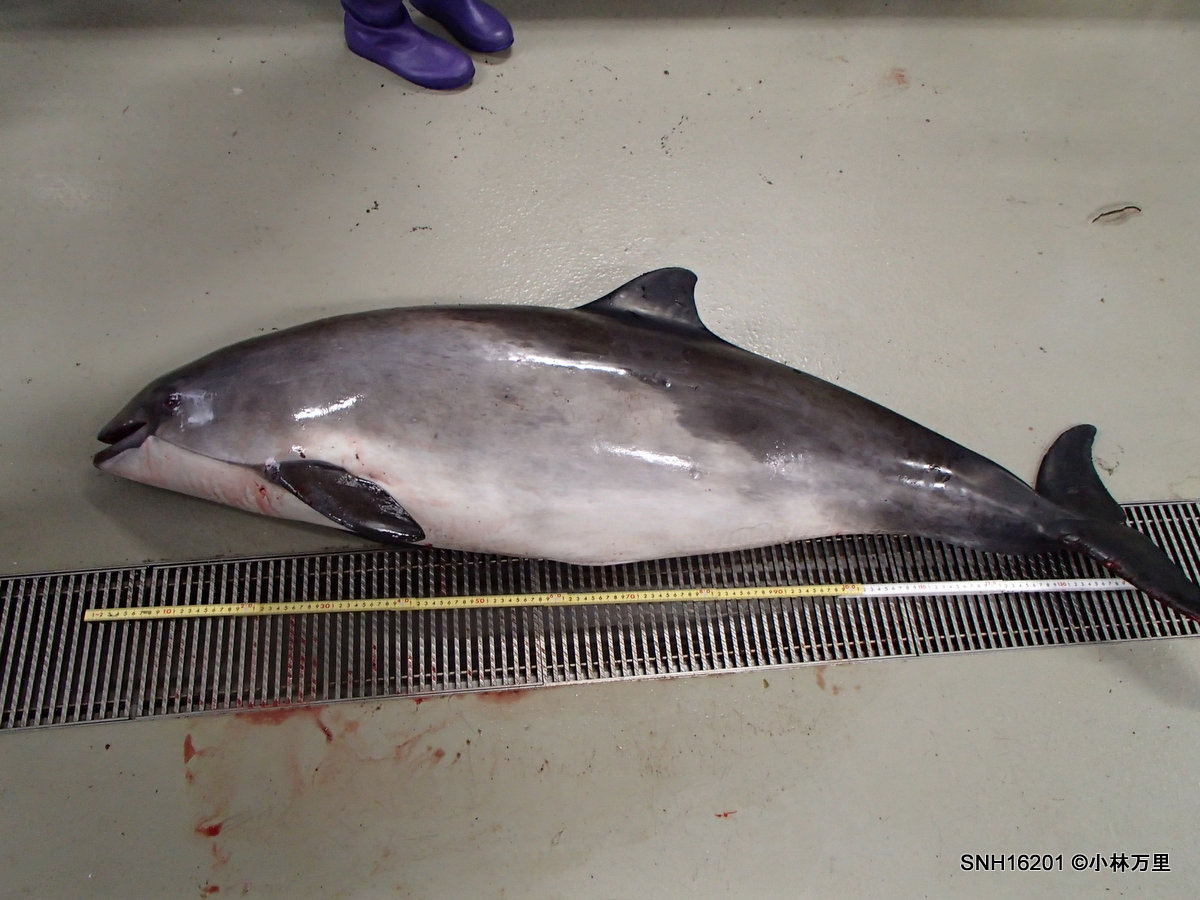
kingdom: Animalia
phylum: Chordata
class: Mammalia
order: Cetacea
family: Phocoenidae
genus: Phocoena
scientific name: Phocoena phocoena
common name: Harbour porpoise
